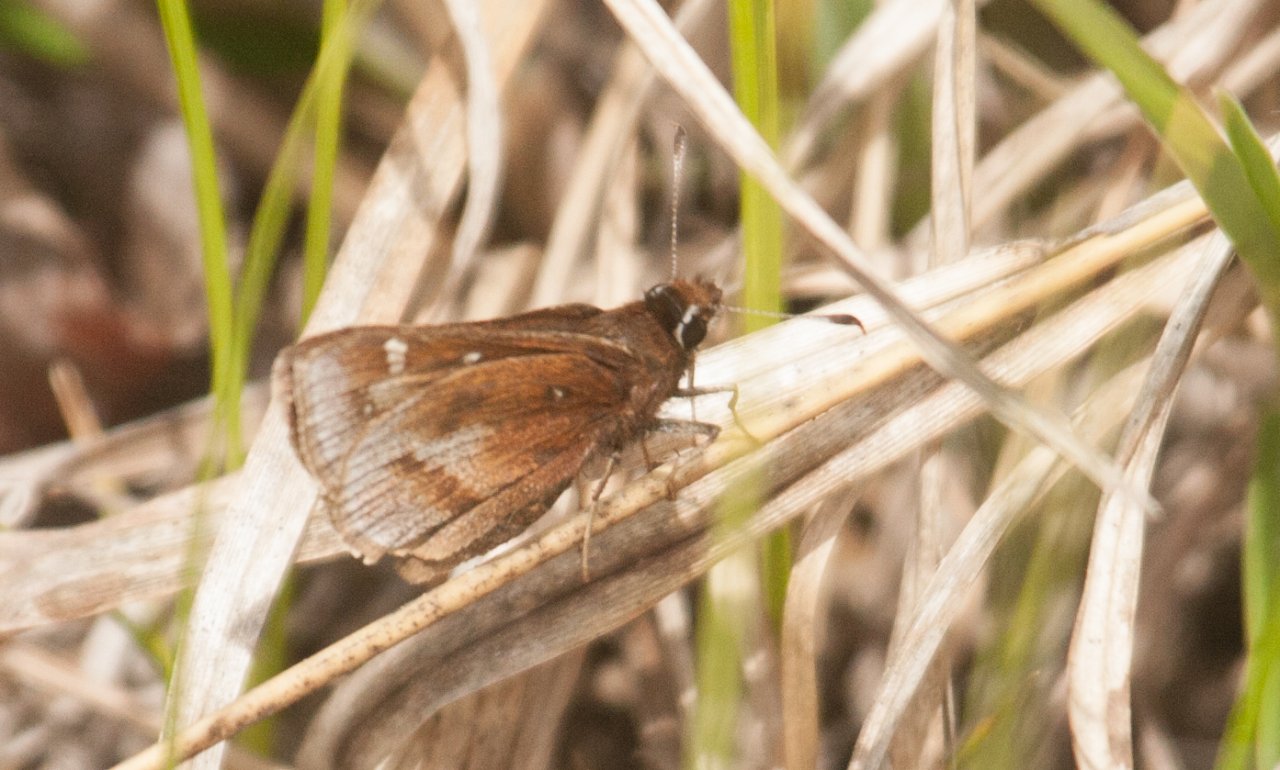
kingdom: Animalia
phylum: Arthropoda
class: Insecta
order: Lepidoptera
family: Hesperiidae
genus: Atrytonopsis
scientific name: Atrytonopsis hianna
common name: Dusted Skipper
